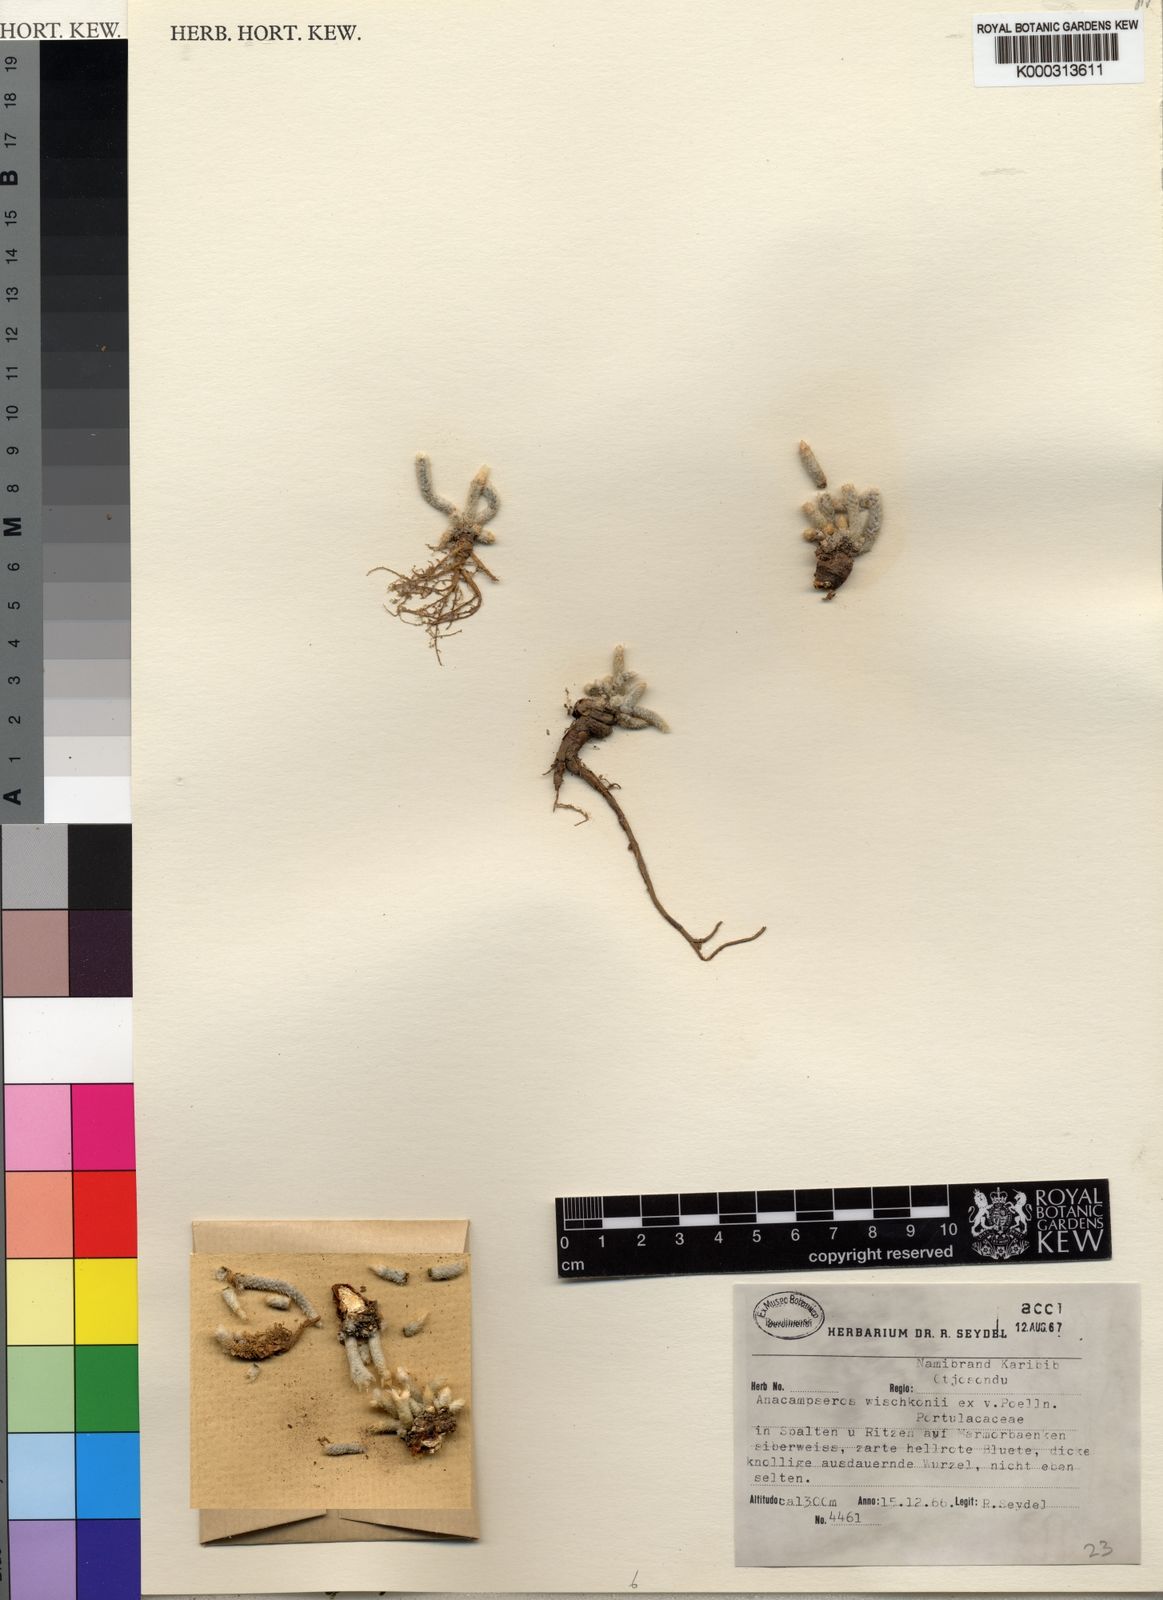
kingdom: Plantae
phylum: Tracheophyta
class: Magnoliopsida
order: Caryophyllales
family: Anacampserotaceae
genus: Avonia
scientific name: Avonia dinteri
